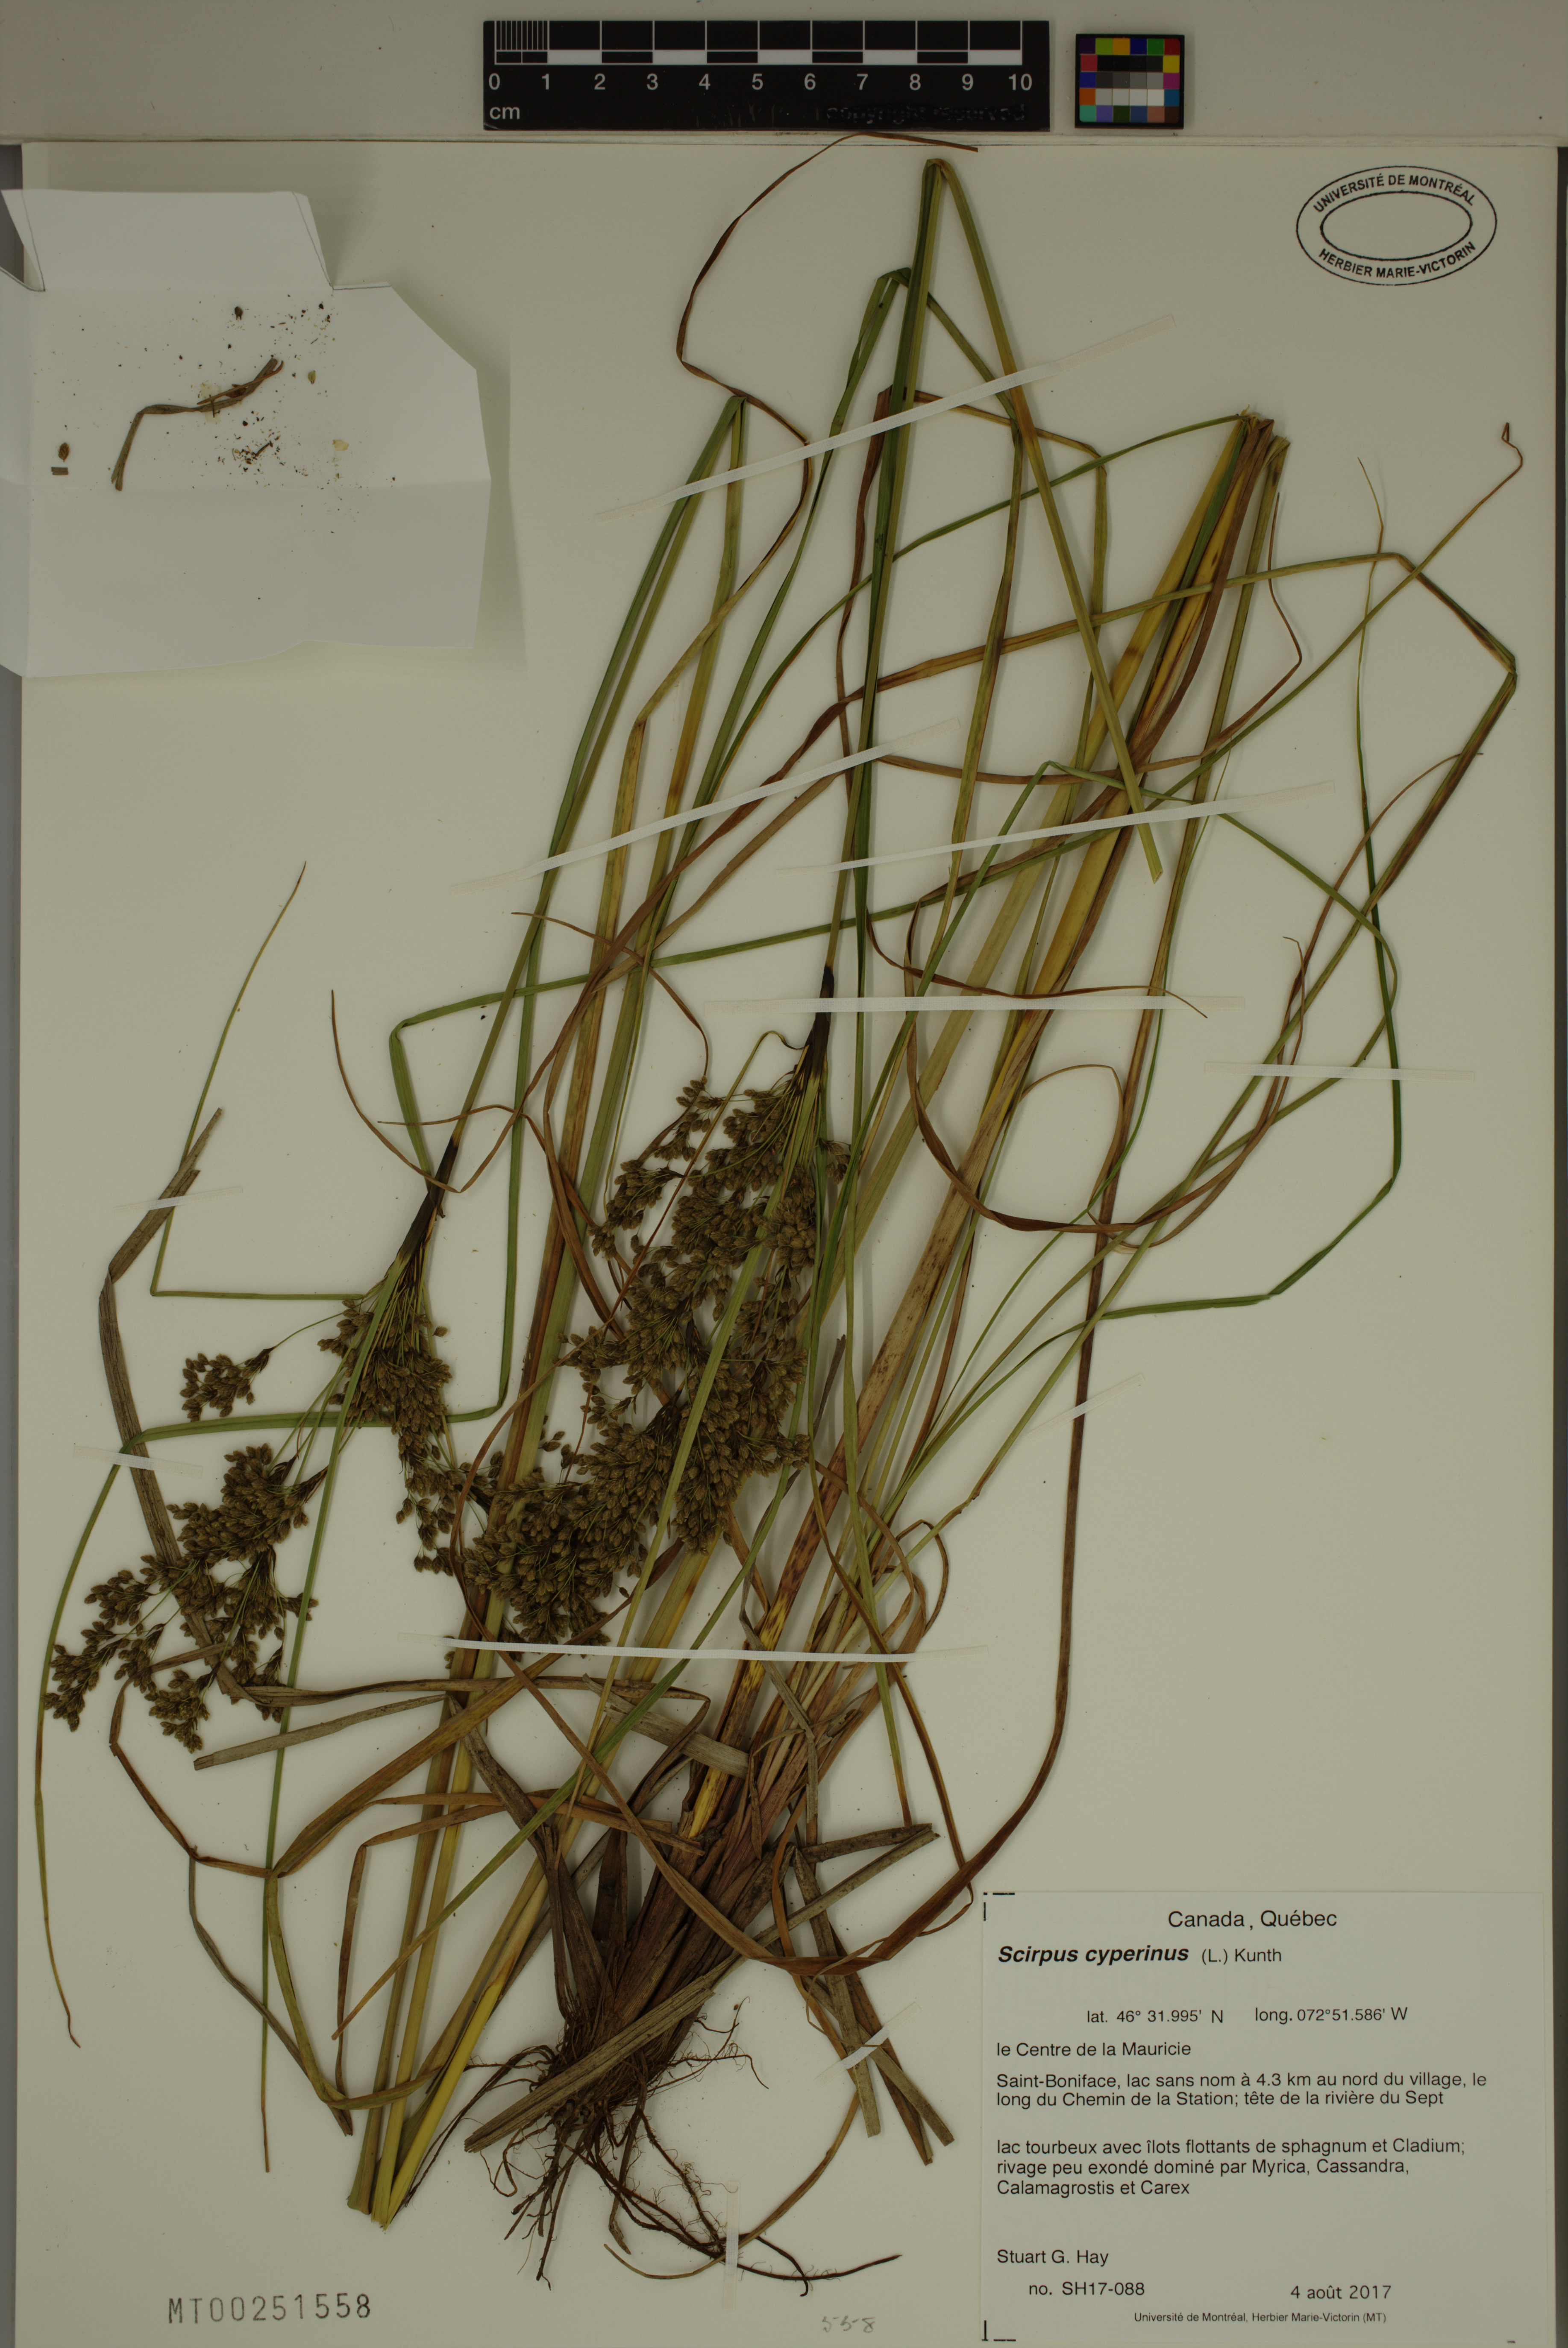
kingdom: Plantae
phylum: Tracheophyta
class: Liliopsida
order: Poales
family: Cyperaceae
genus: Scirpus
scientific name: Scirpus cyperinus
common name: Black-sheathed bulrush
